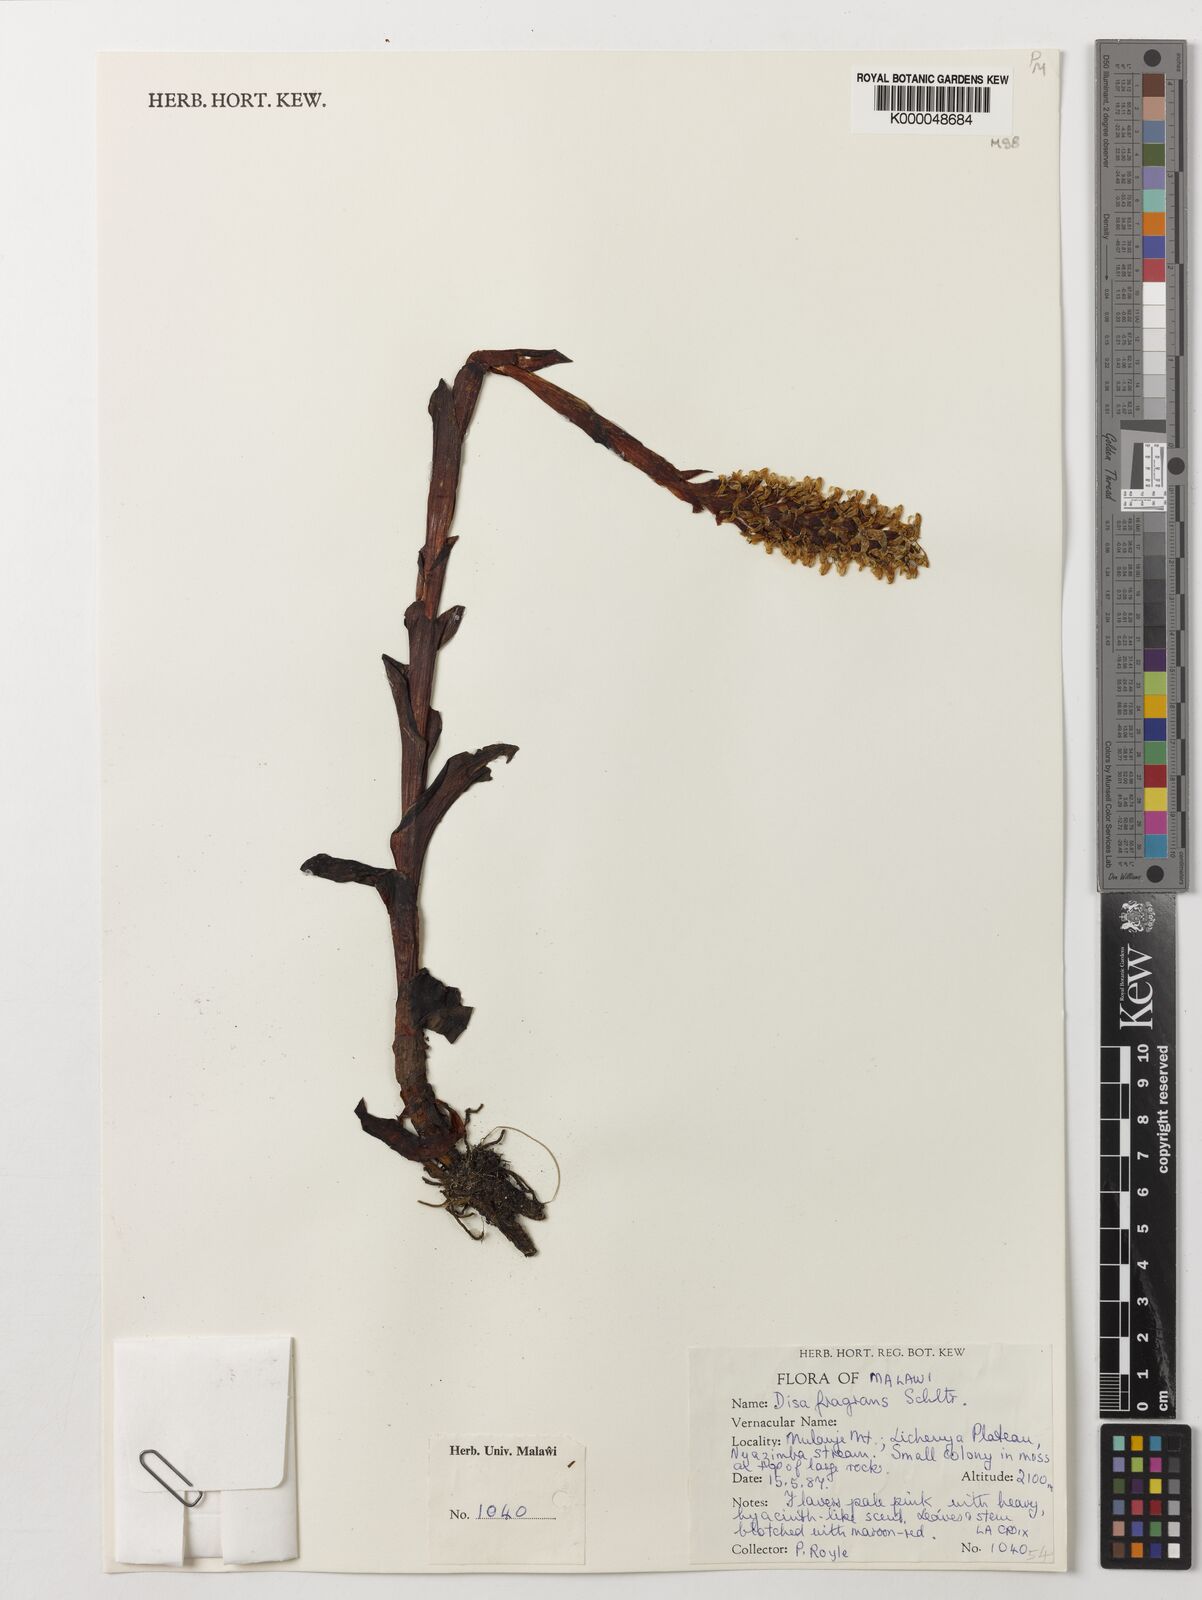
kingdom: Plantae
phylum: Tracheophyta
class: Liliopsida
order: Asparagales
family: Orchidaceae
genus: Disa
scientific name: Disa fragrans
